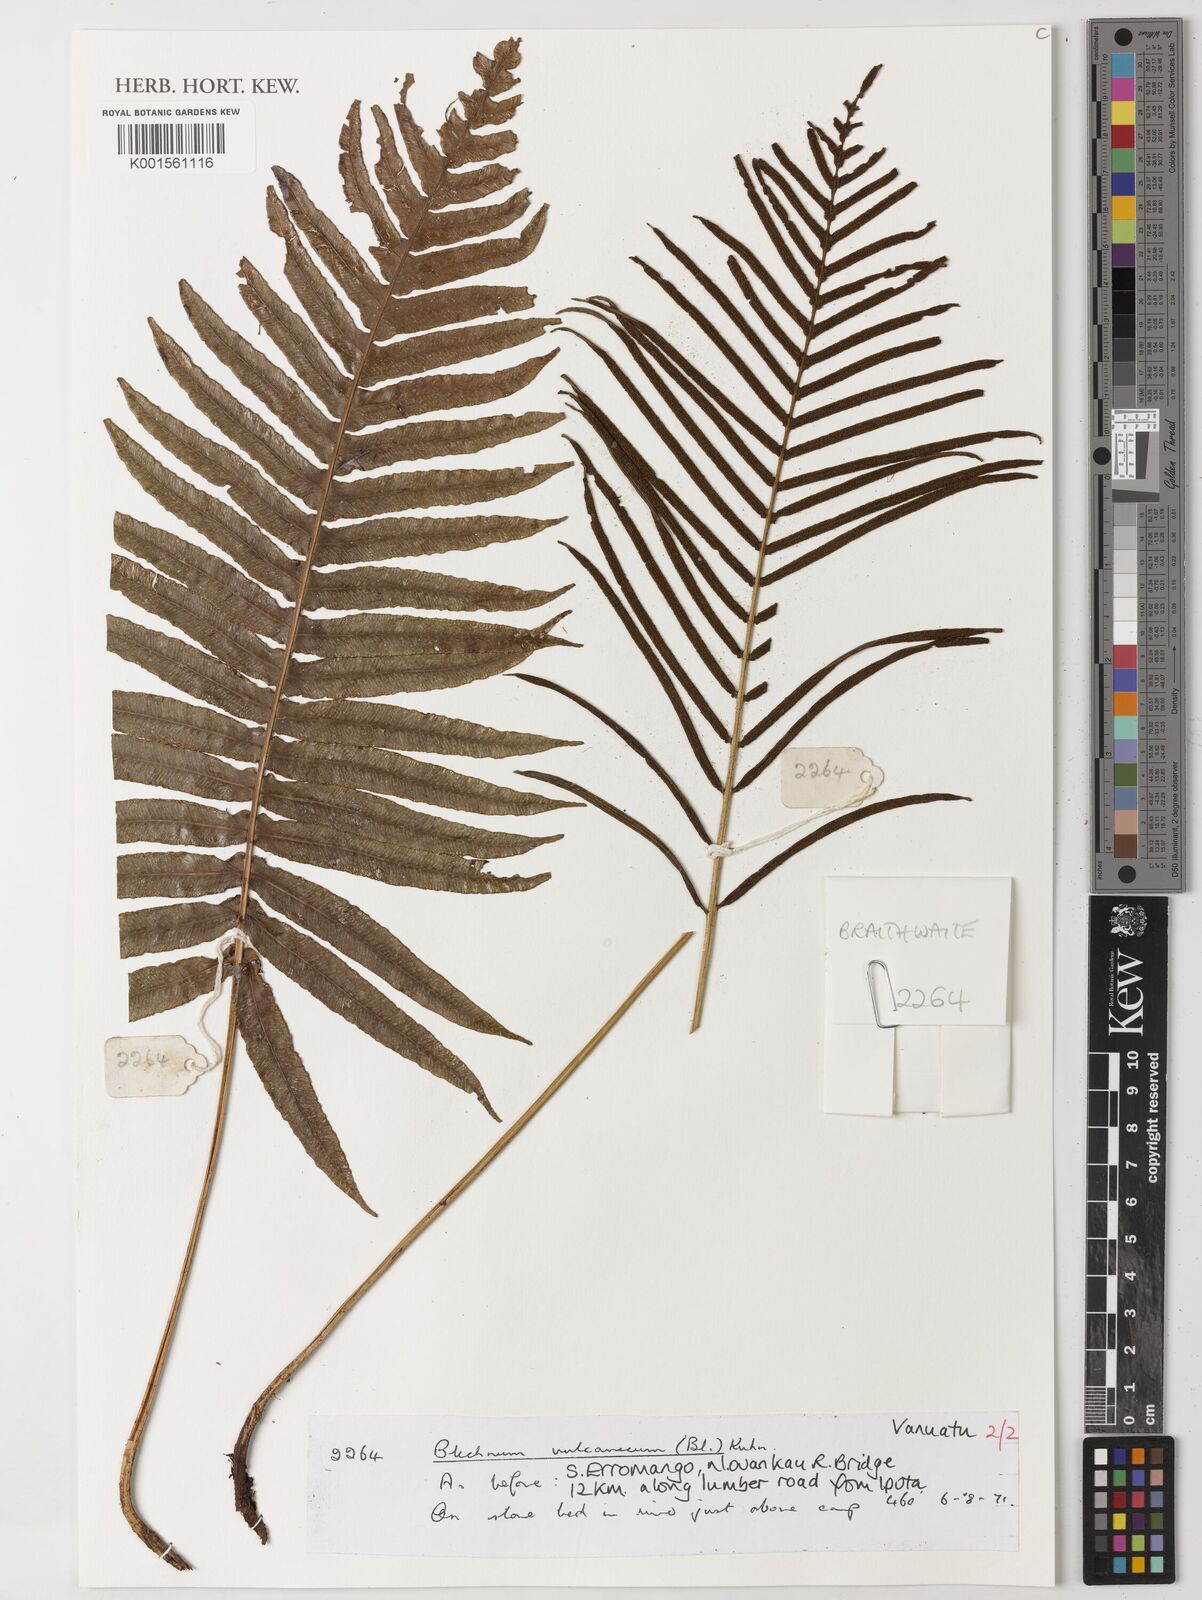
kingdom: Plantae
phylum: Tracheophyta
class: Polypodiopsida
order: Polypodiales
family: Blechnaceae
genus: Cranfillia
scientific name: Cranfillia vulcanica
